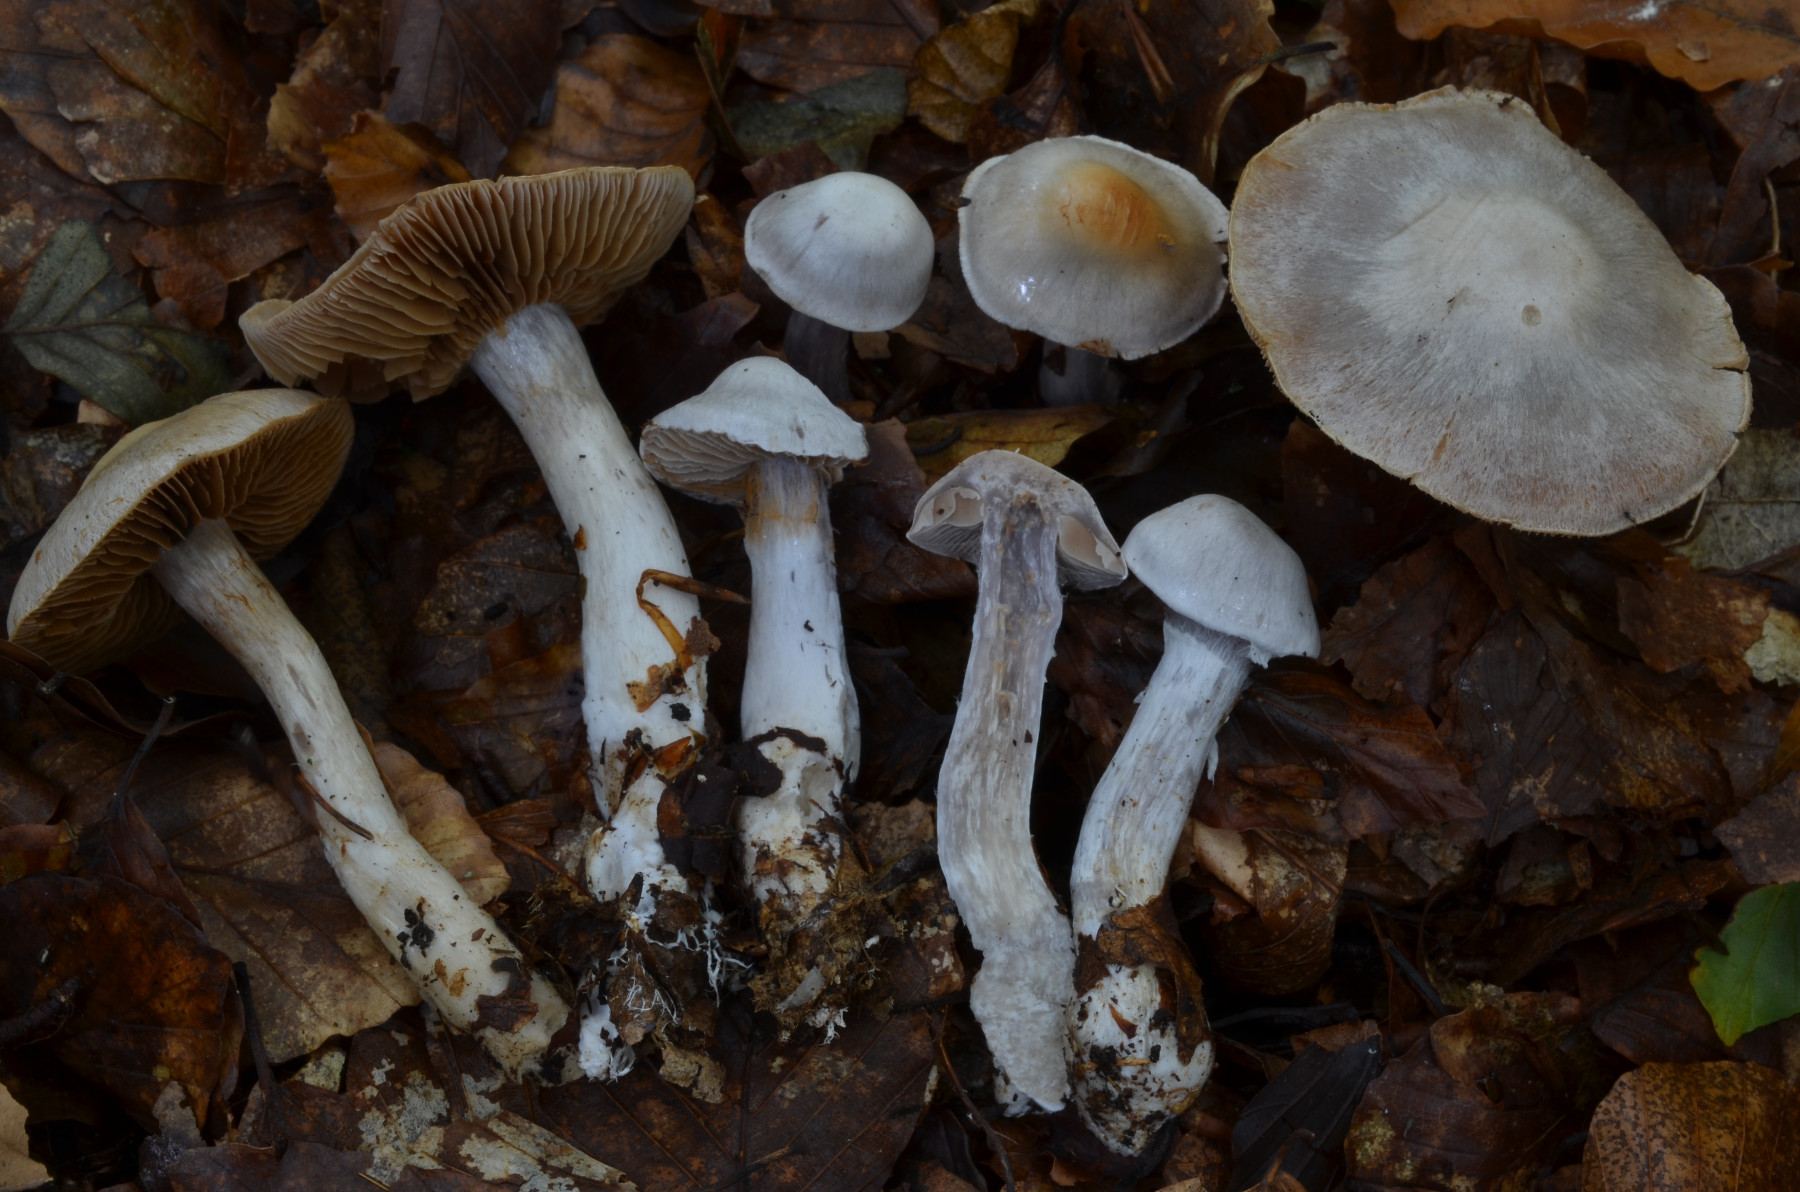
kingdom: Fungi
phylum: Basidiomycota
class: Agaricomycetes
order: Agaricales
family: Cortinariaceae
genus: Cortinarius
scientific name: Cortinarius alboviolaceus
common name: lysviolet slørhat
